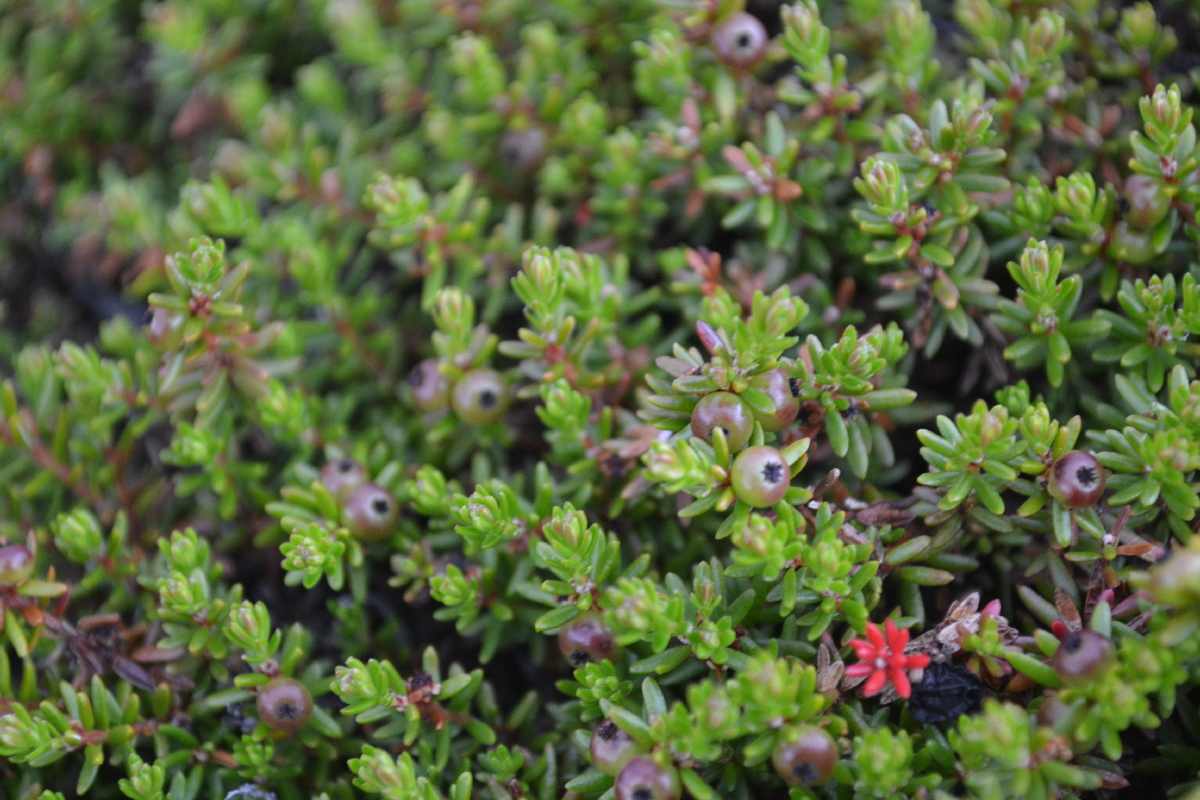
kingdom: Plantae
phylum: Tracheophyta
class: Magnoliopsida
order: Ericales
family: Ericaceae
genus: Empetrum
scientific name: Empetrum nigrum
